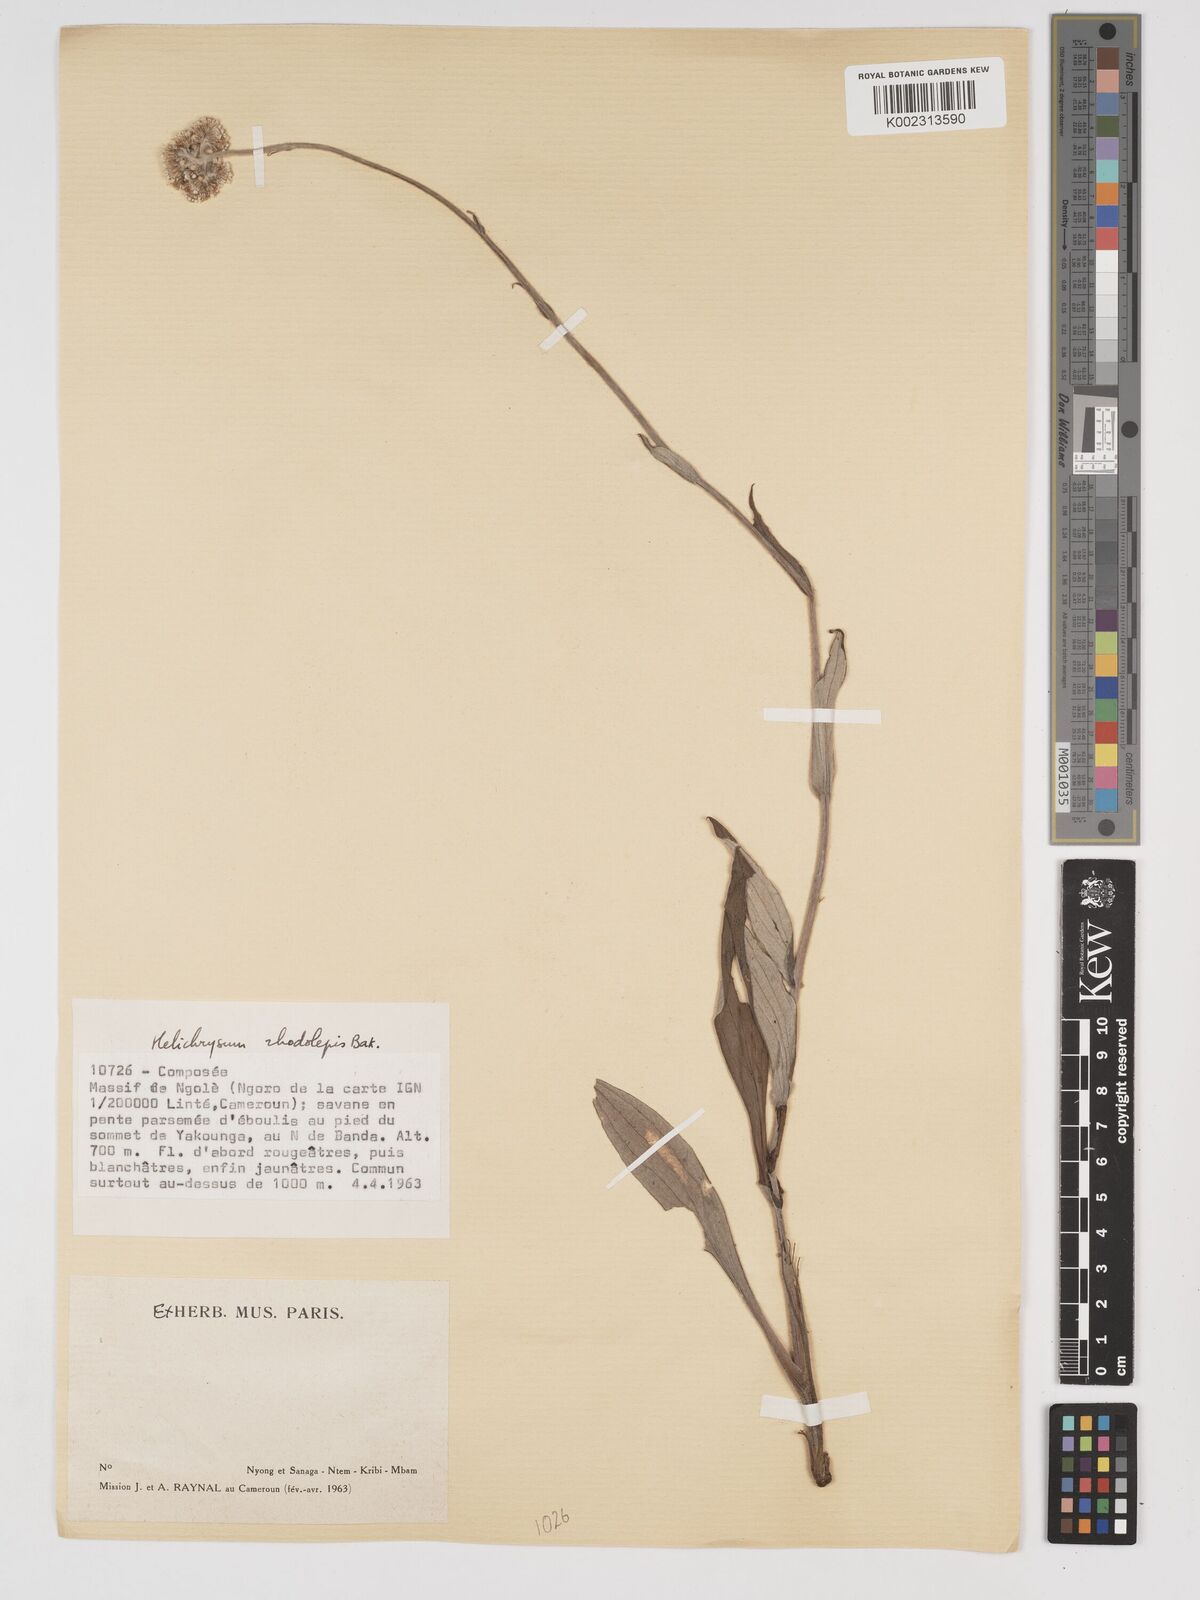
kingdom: Plantae
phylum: Tracheophyta
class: Magnoliopsida
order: Asterales
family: Asteraceae
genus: Helichrysum
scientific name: Helichrysum nudifolium
